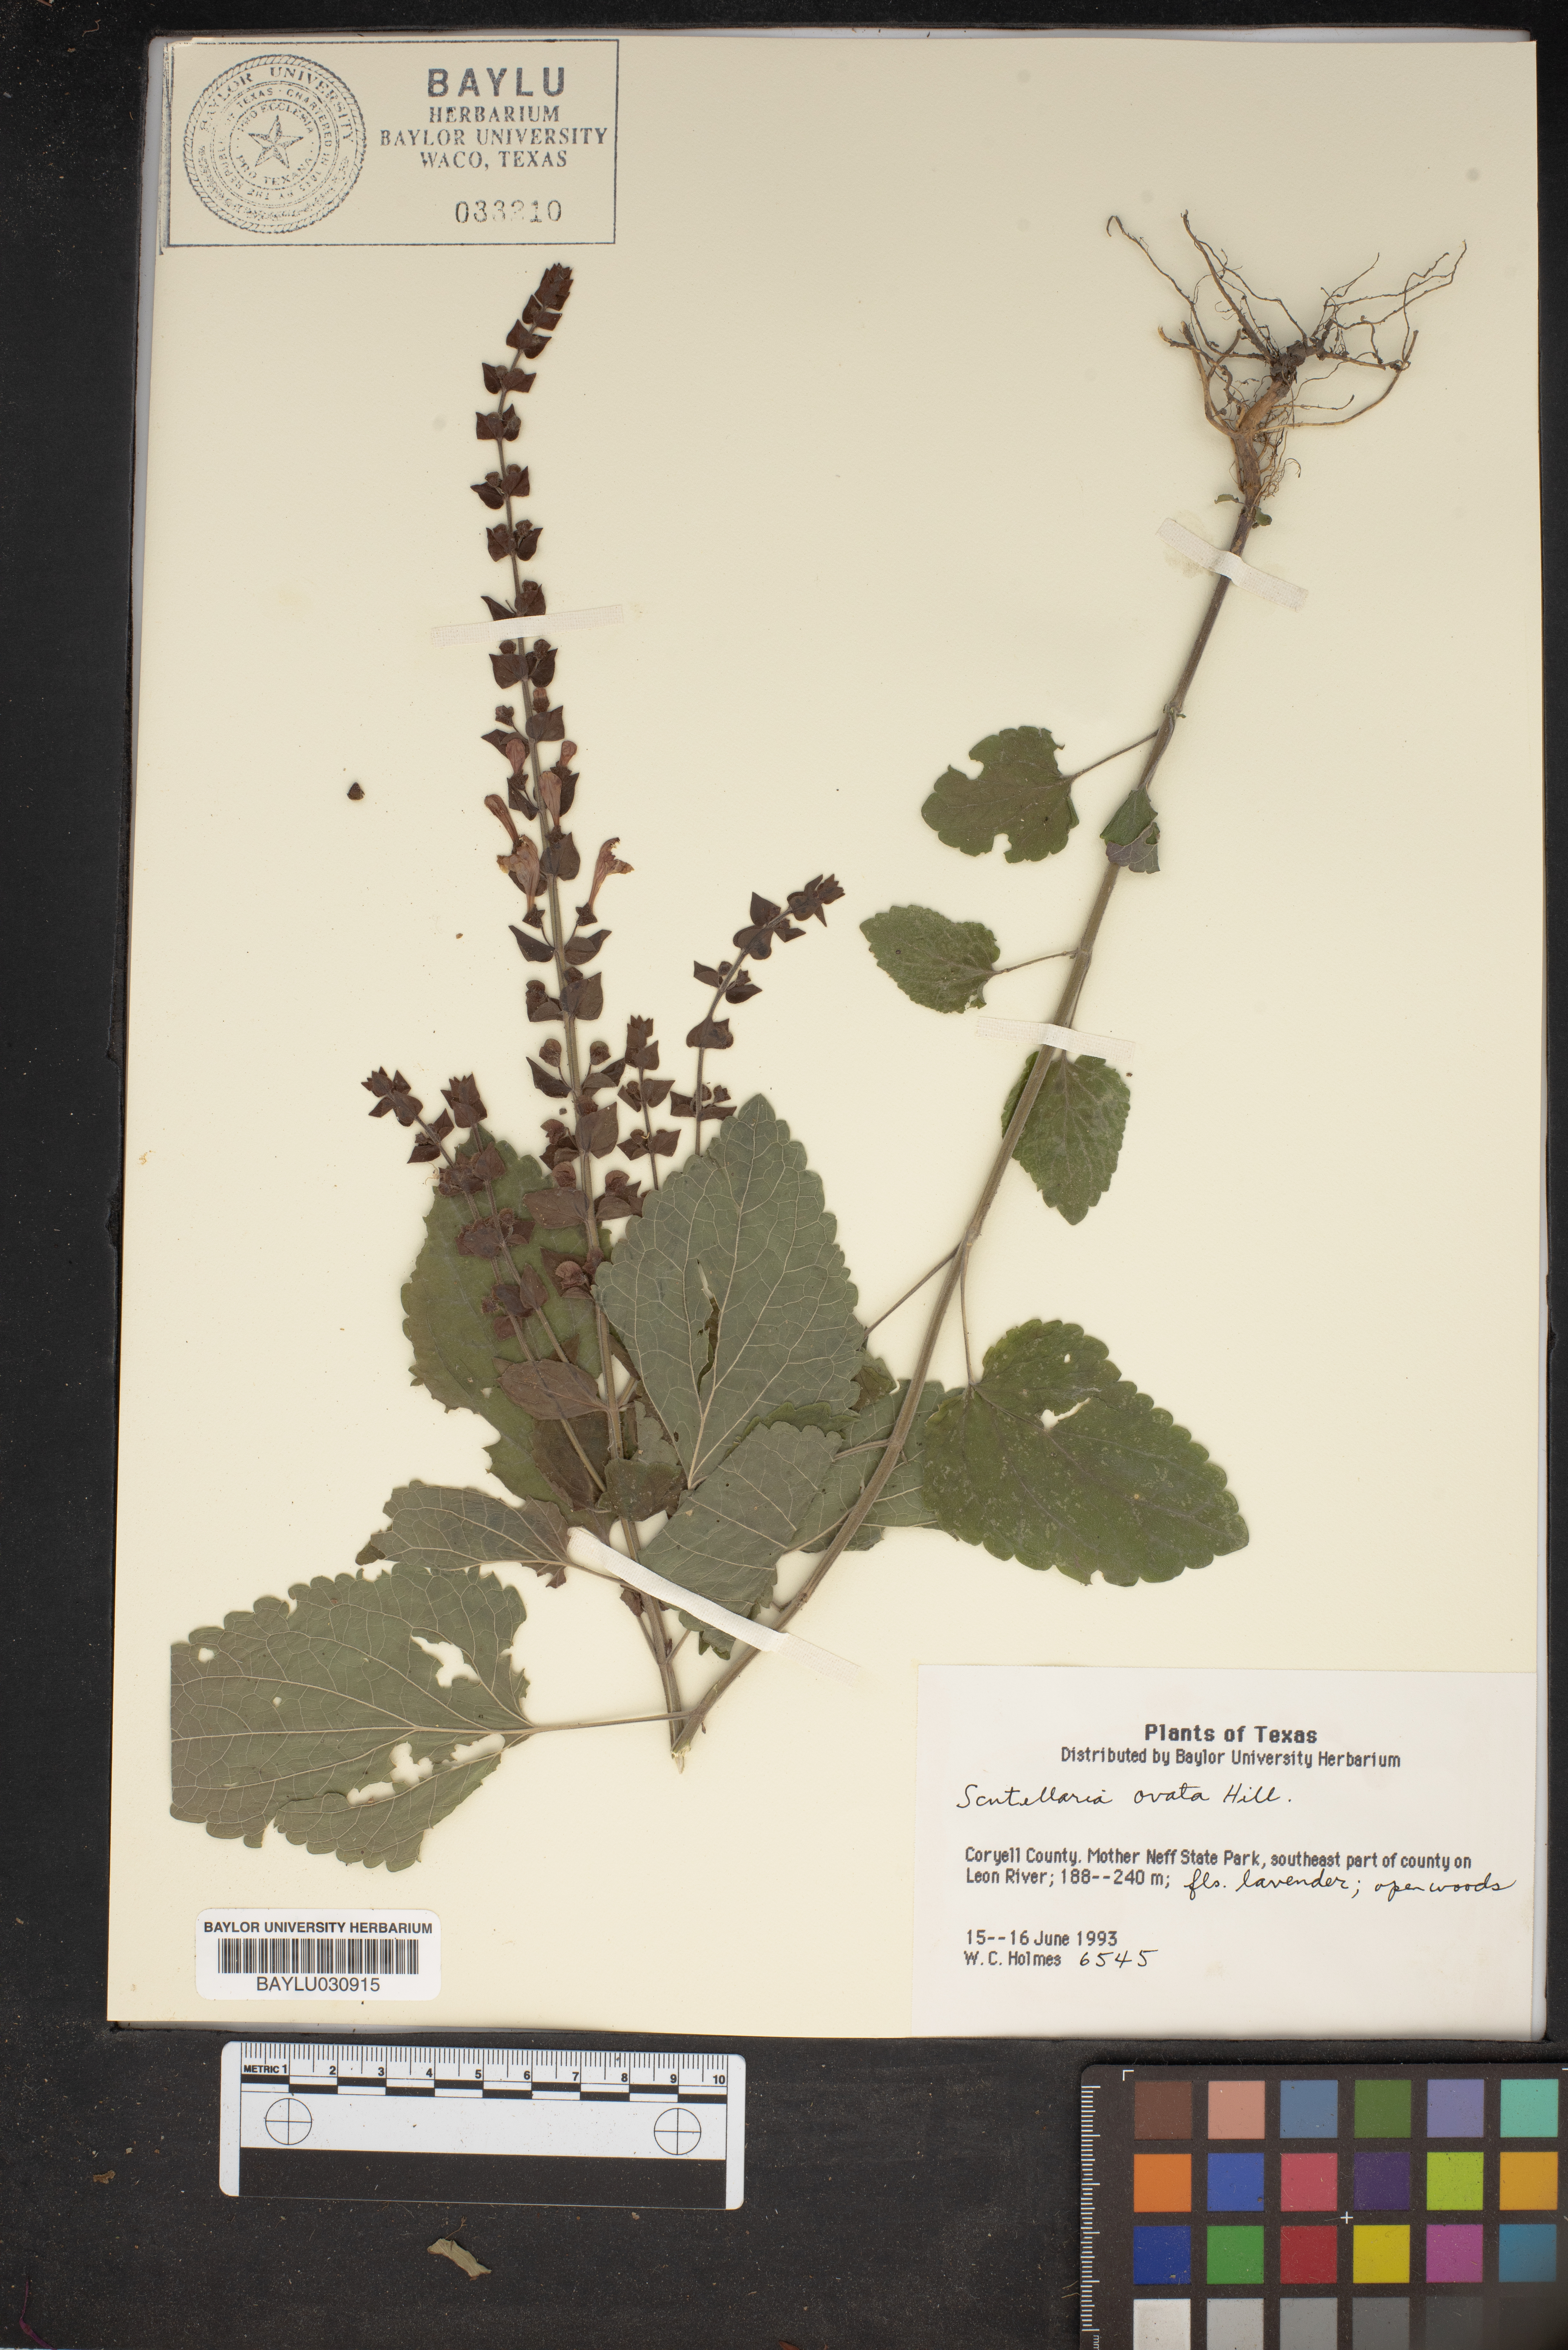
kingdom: Plantae
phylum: Tracheophyta
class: Magnoliopsida
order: Lamiales
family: Lamiaceae
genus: Scutellaria
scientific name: Scutellaria ovata
